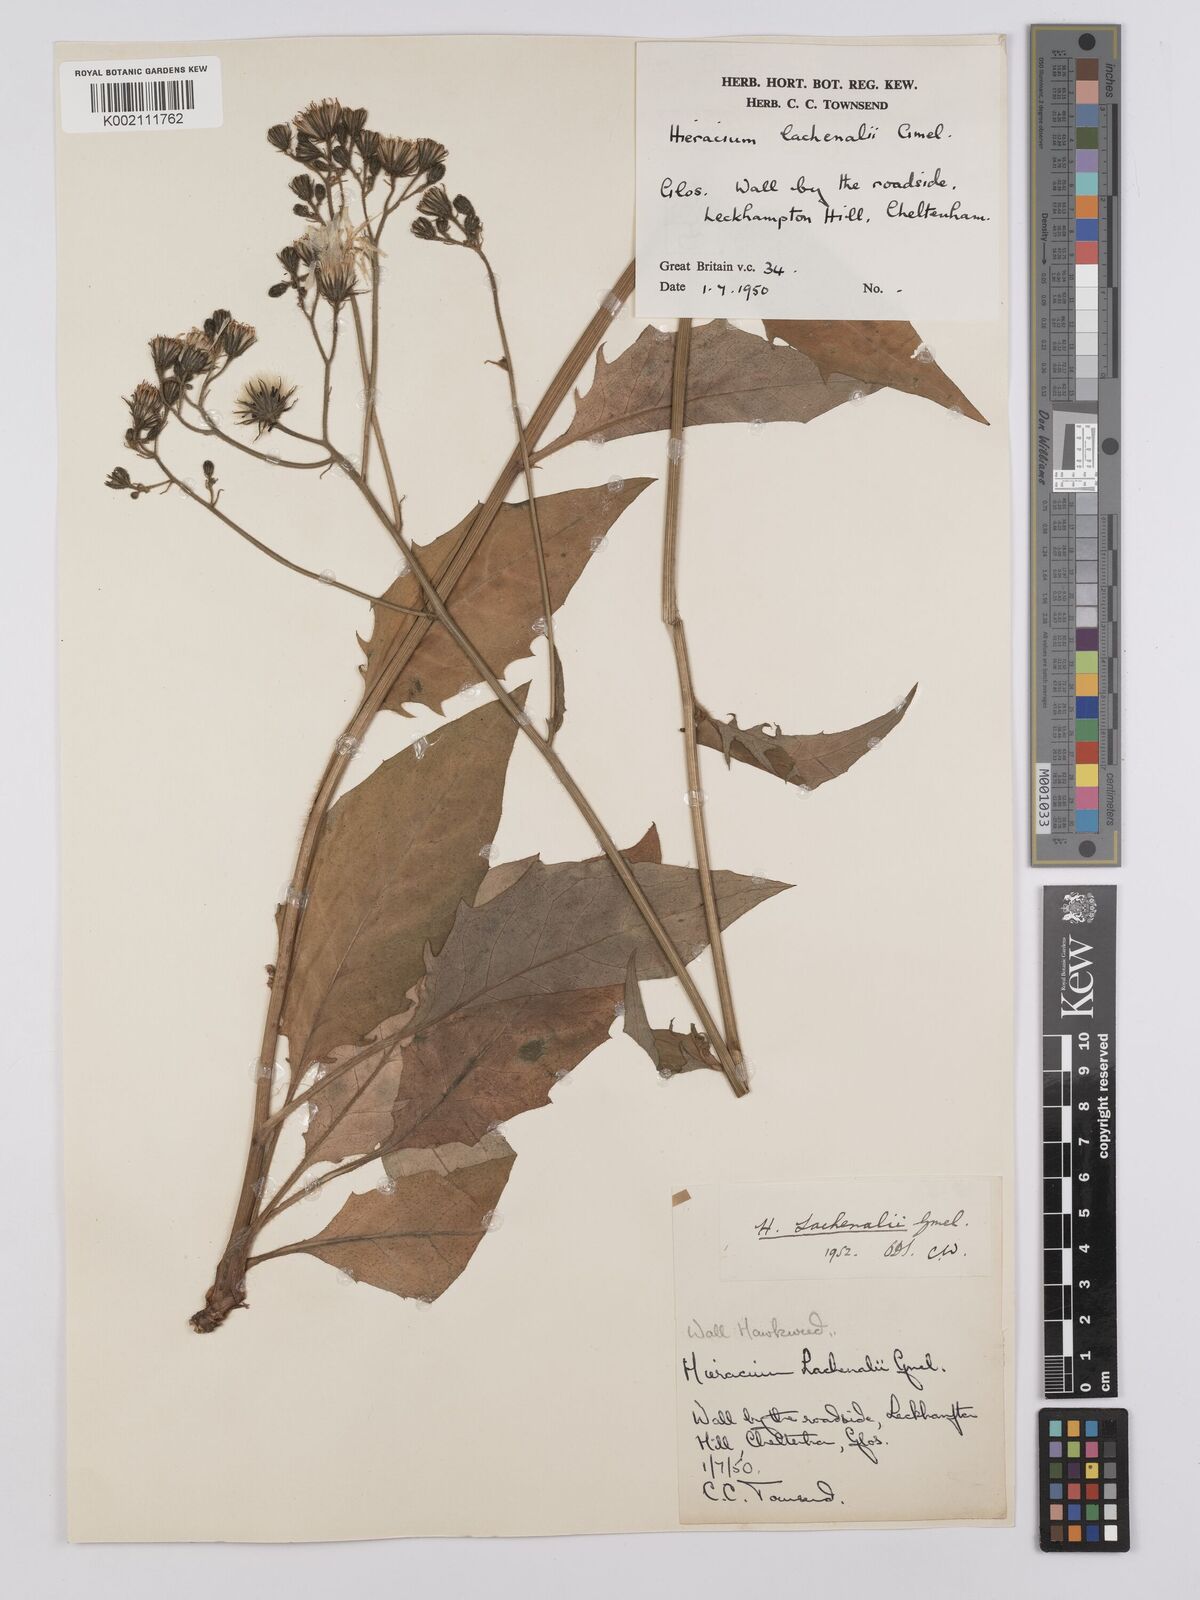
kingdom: Plantae
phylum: Tracheophyta
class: Magnoliopsida
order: Asterales
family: Asteraceae
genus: Hieracium
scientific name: Hieracium lachenalii
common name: Common hawkweed
